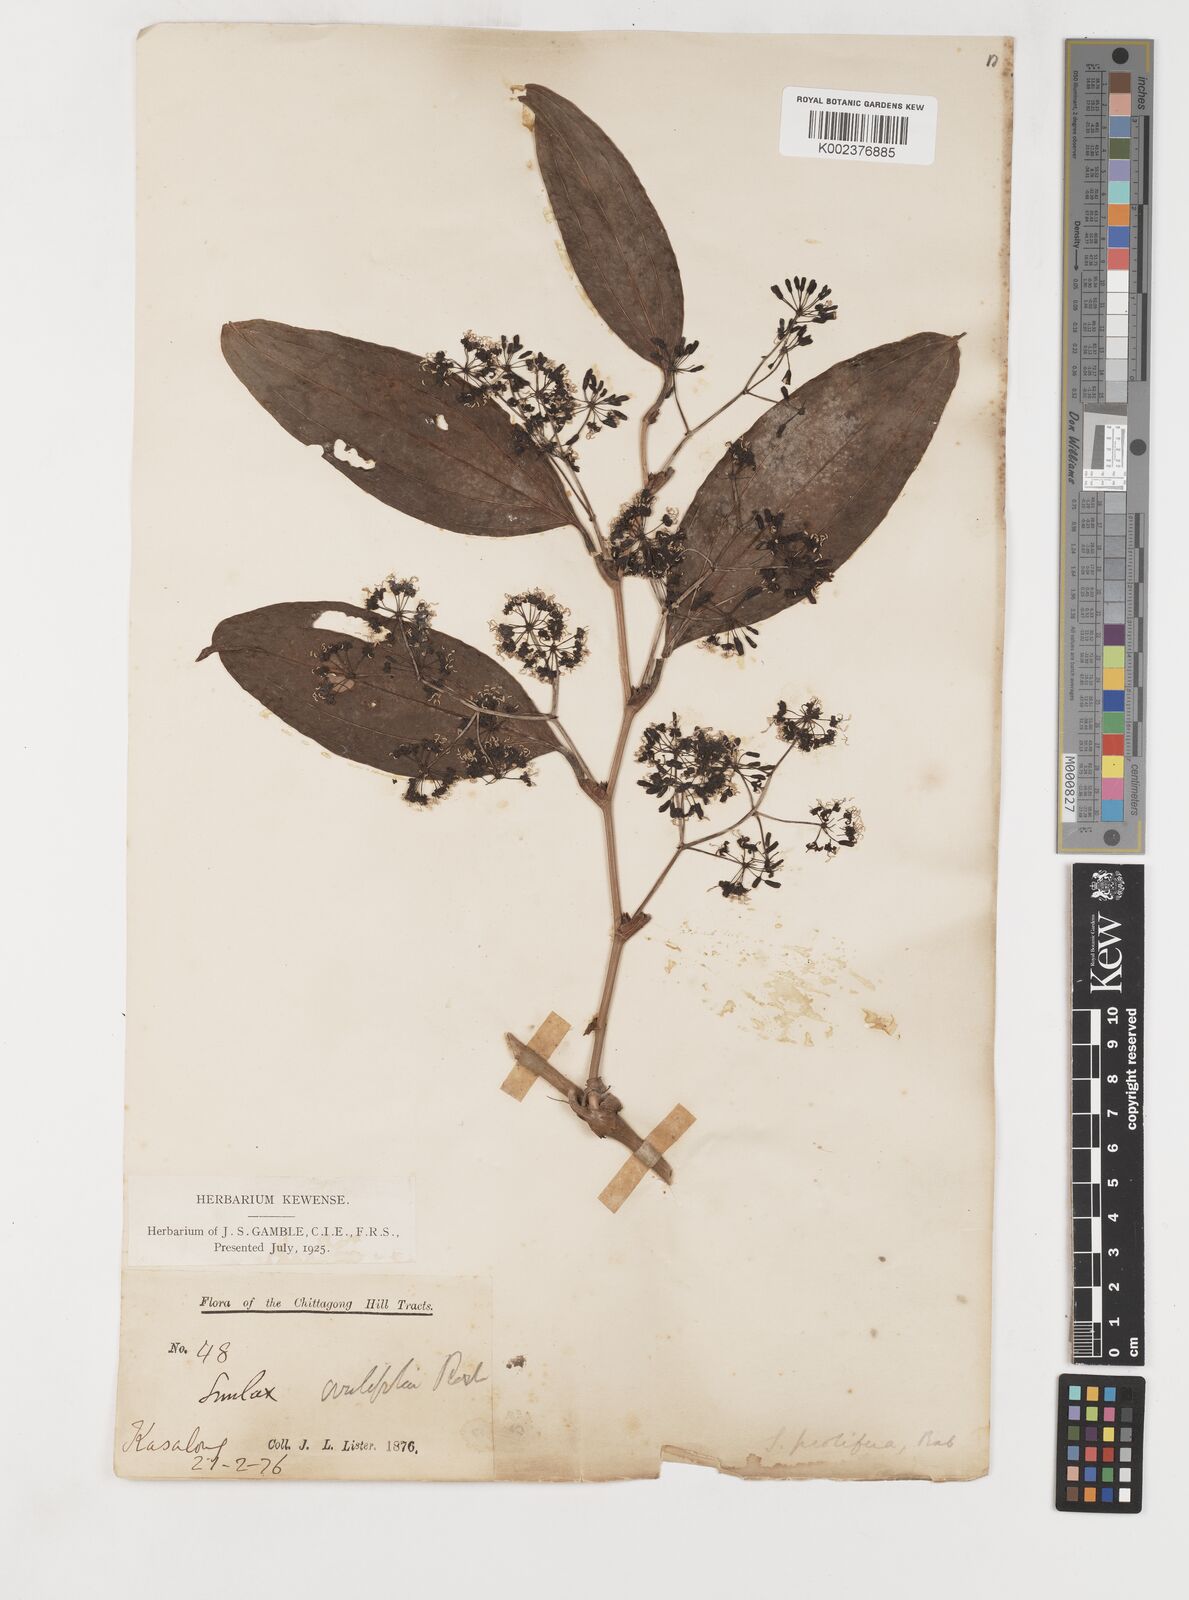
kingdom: Plantae
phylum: Tracheophyta
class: Liliopsida
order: Liliales
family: Smilacaceae
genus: Smilax
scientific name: Smilax prolifera
